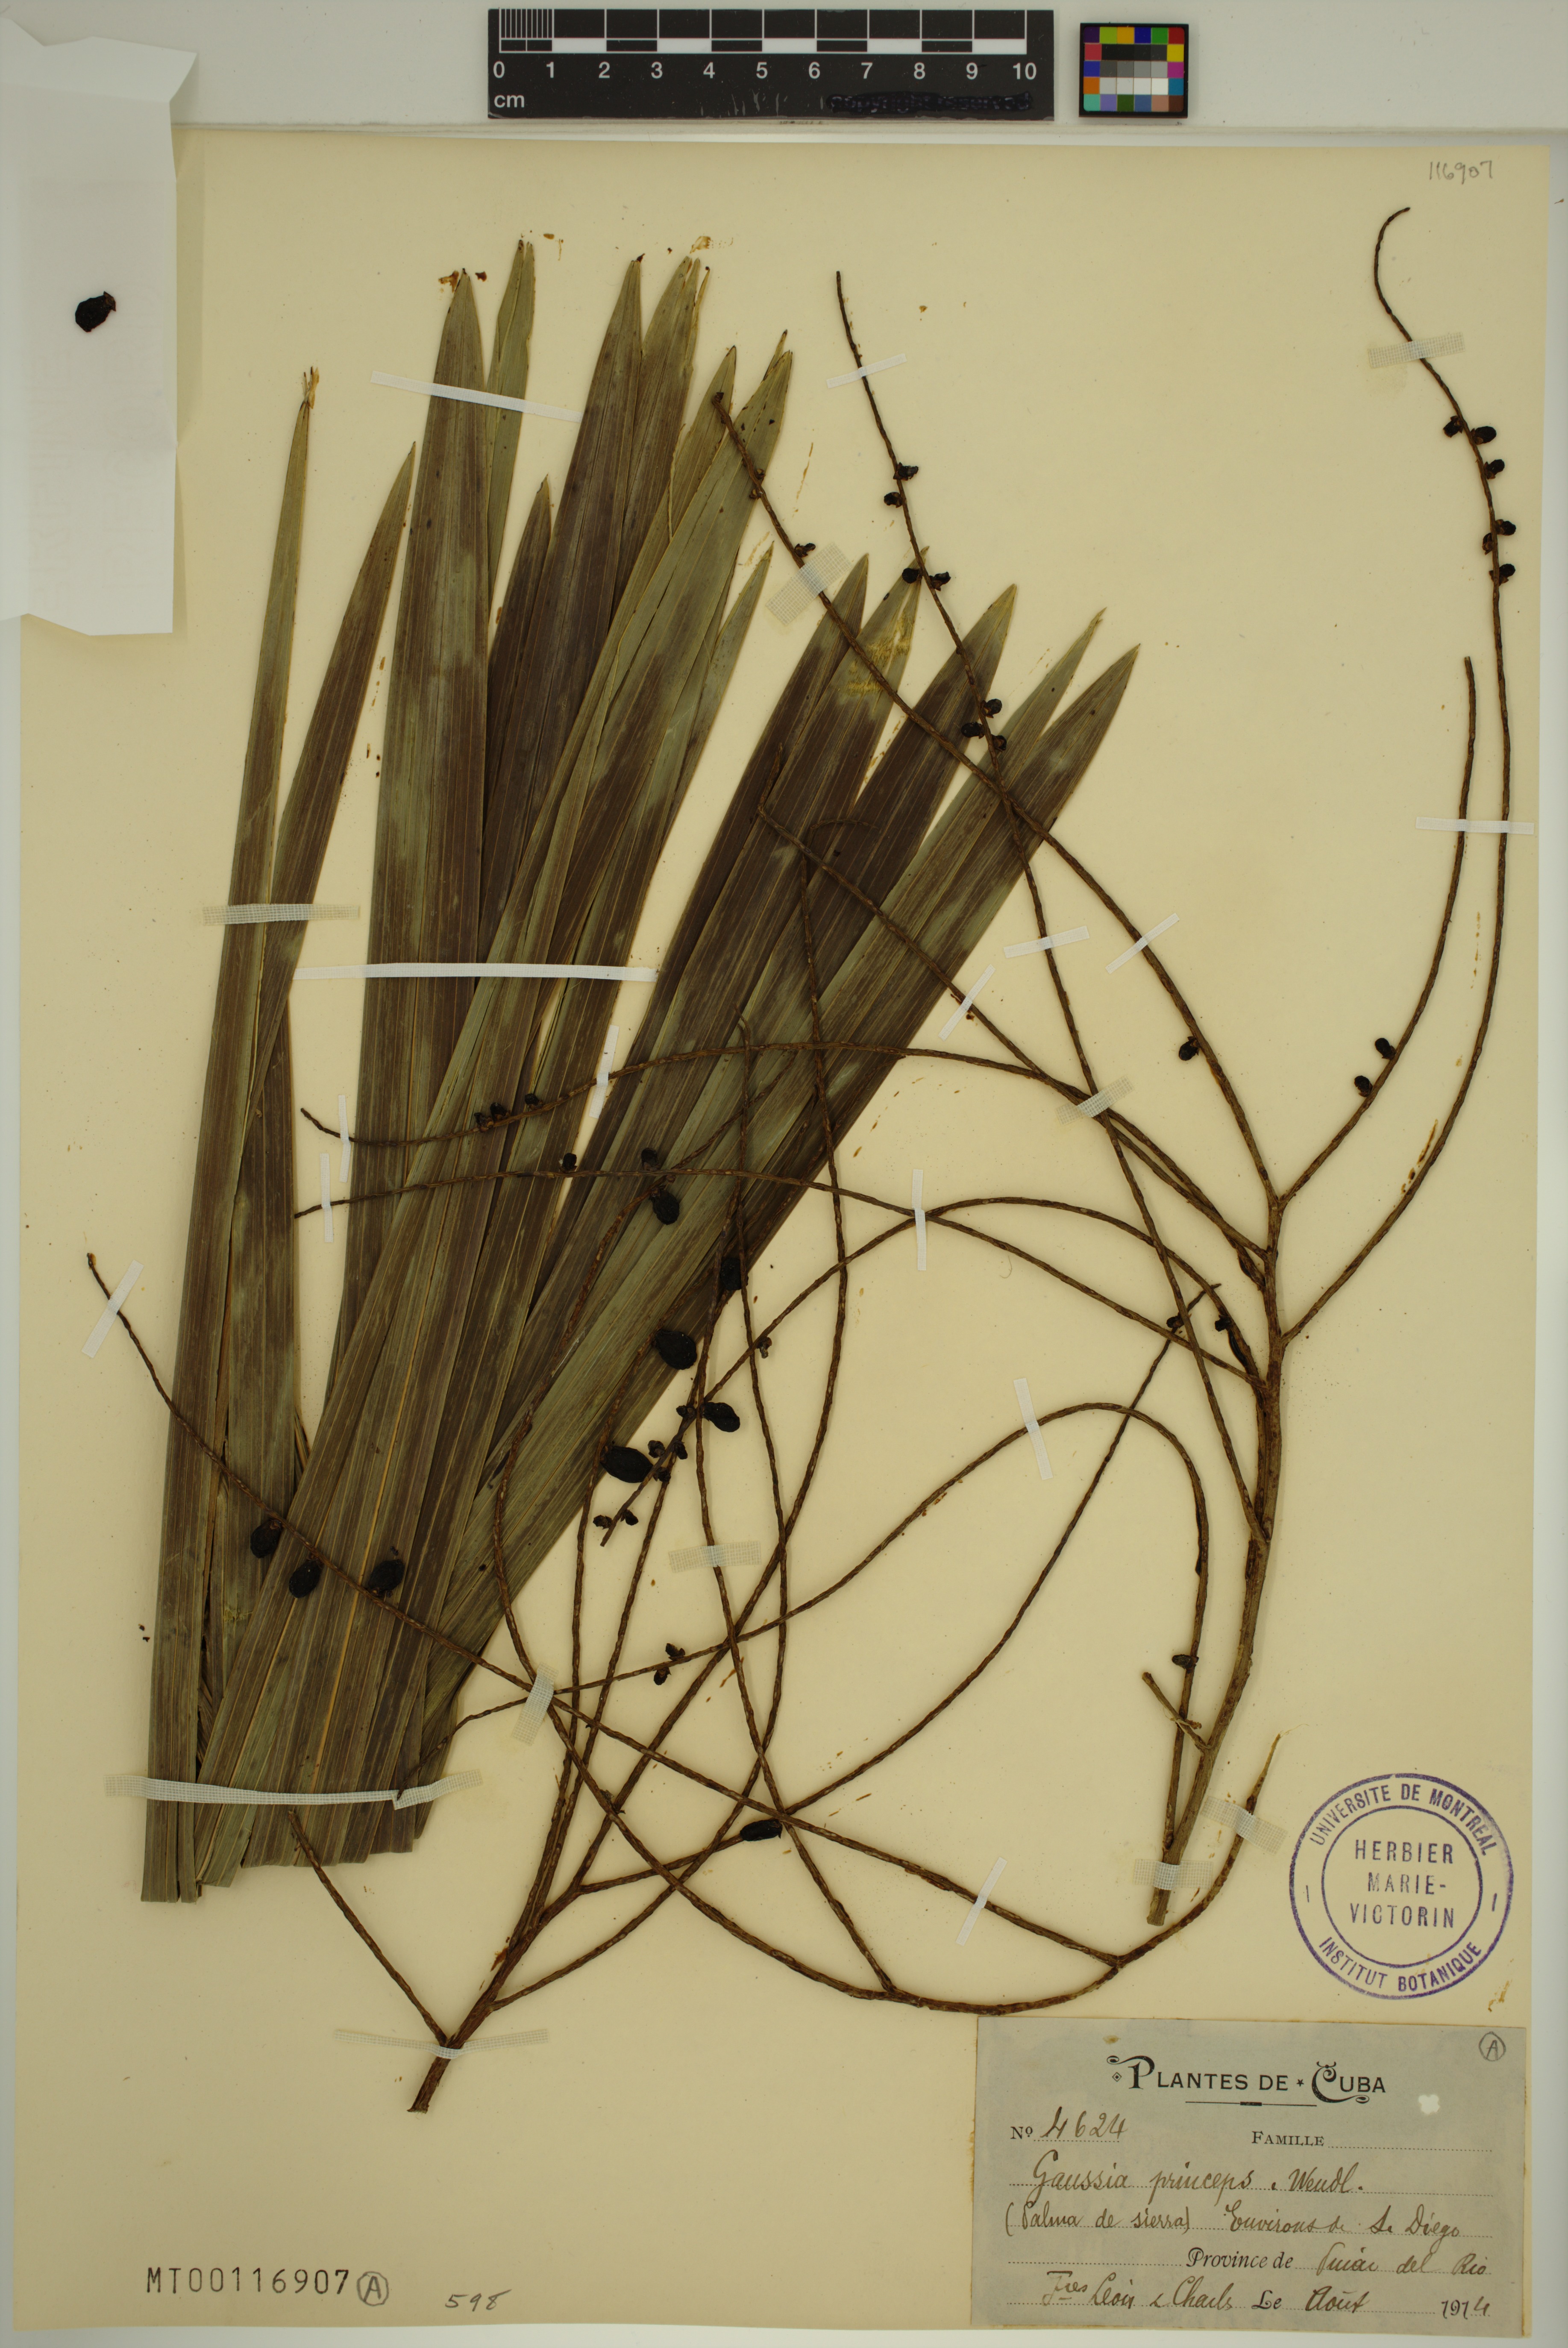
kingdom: Plantae
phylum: Tracheophyta
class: Liliopsida
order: Arecales
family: Arecaceae
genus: Gaussia
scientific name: Gaussia princeps
